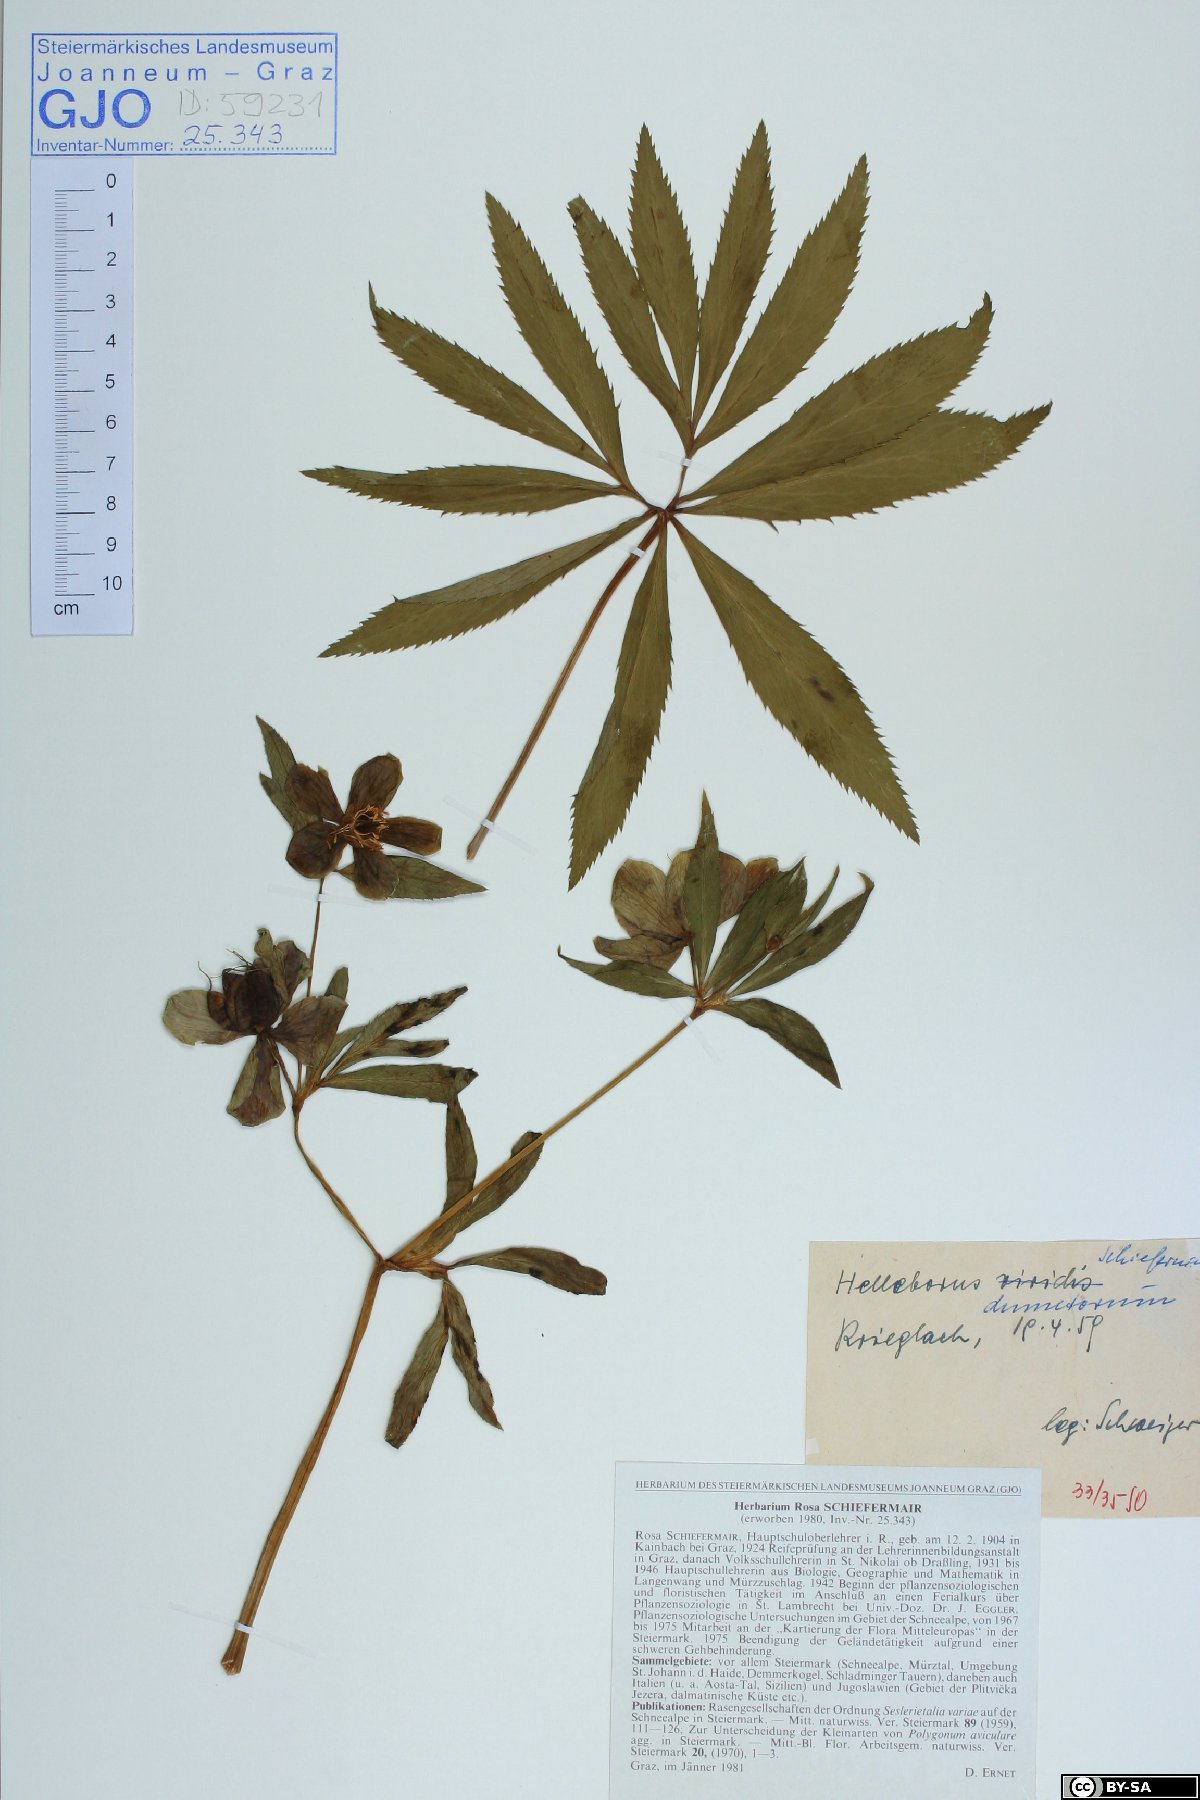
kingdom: Plantae
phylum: Tracheophyta
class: Magnoliopsida
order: Ranunculales
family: Ranunculaceae
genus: Helleborus
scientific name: Helleborus dumetorum
